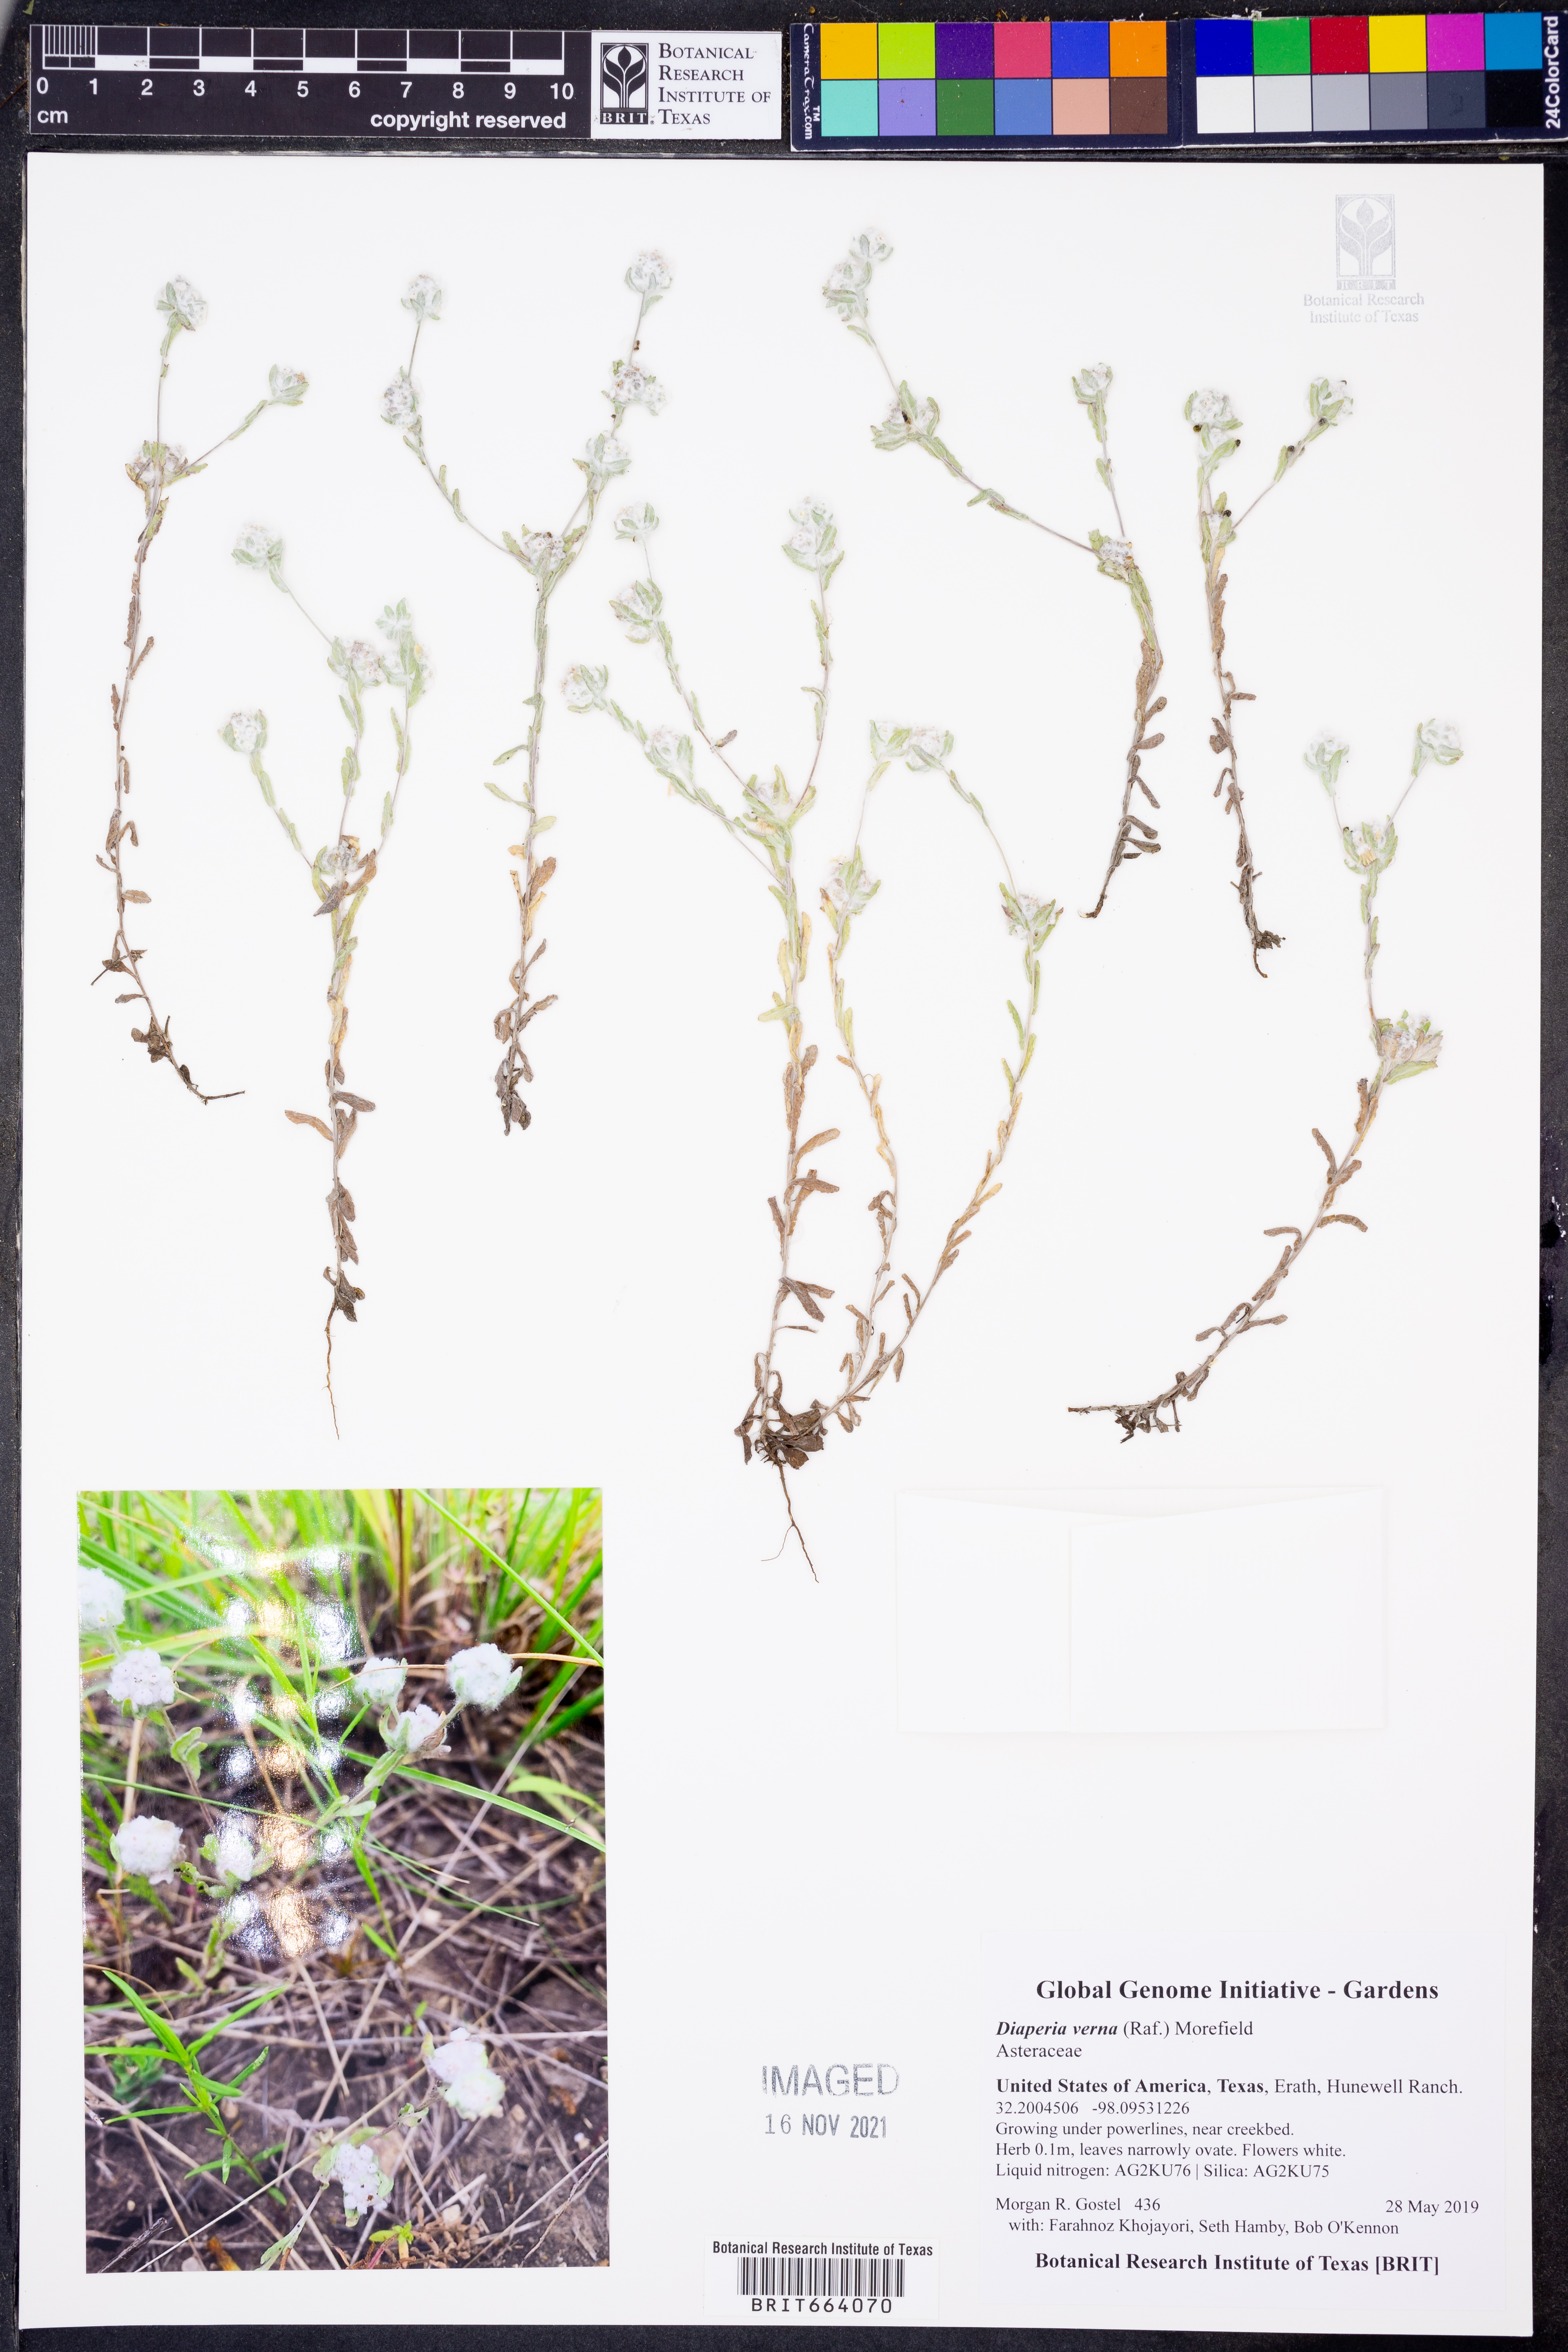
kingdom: Plantae
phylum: Tracheophyta
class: Magnoliopsida
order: Asterales
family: Asteraceae
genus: Diaperia
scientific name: Diaperia verna
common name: Many-stem rabbit-tobacco
